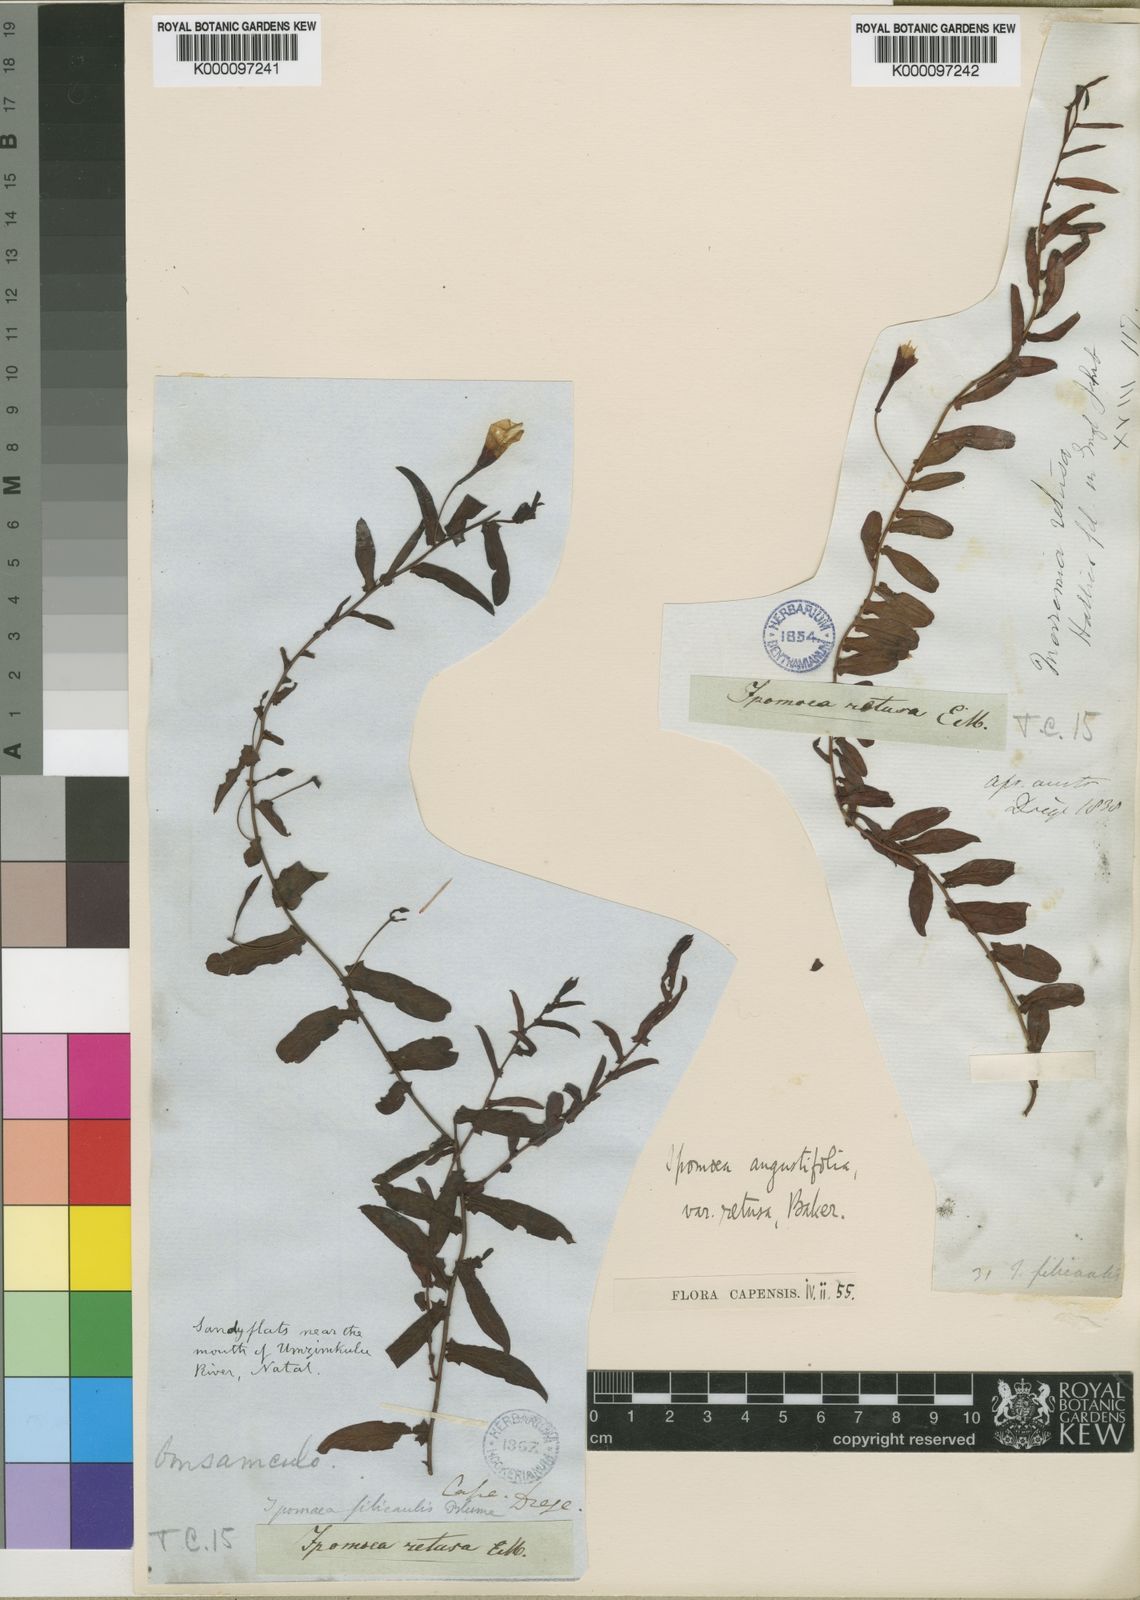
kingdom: Plantae
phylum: Tracheophyta
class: Magnoliopsida
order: Solanales
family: Convolvulaceae
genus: Xenostegia
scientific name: Xenostegia tridentata
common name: African morningvine
